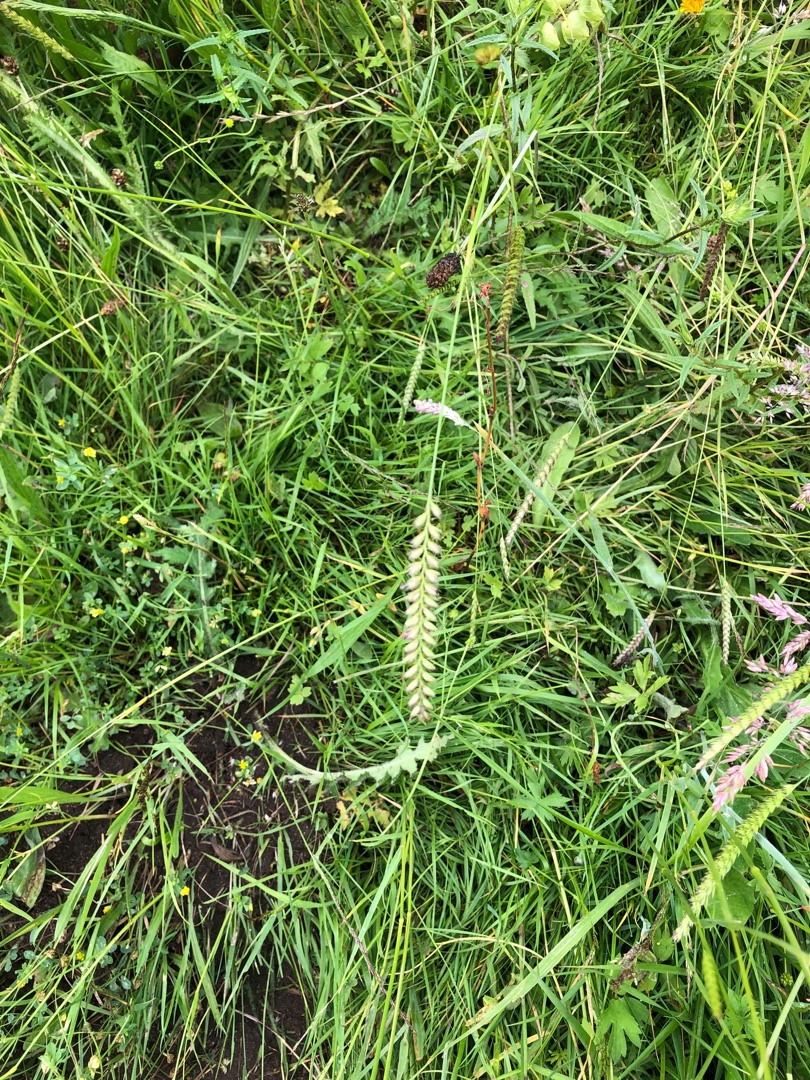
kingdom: Plantae
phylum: Tracheophyta
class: Liliopsida
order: Poales
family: Poaceae
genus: Cynosurus
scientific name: Cynosurus cristatus
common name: Kamgræs
